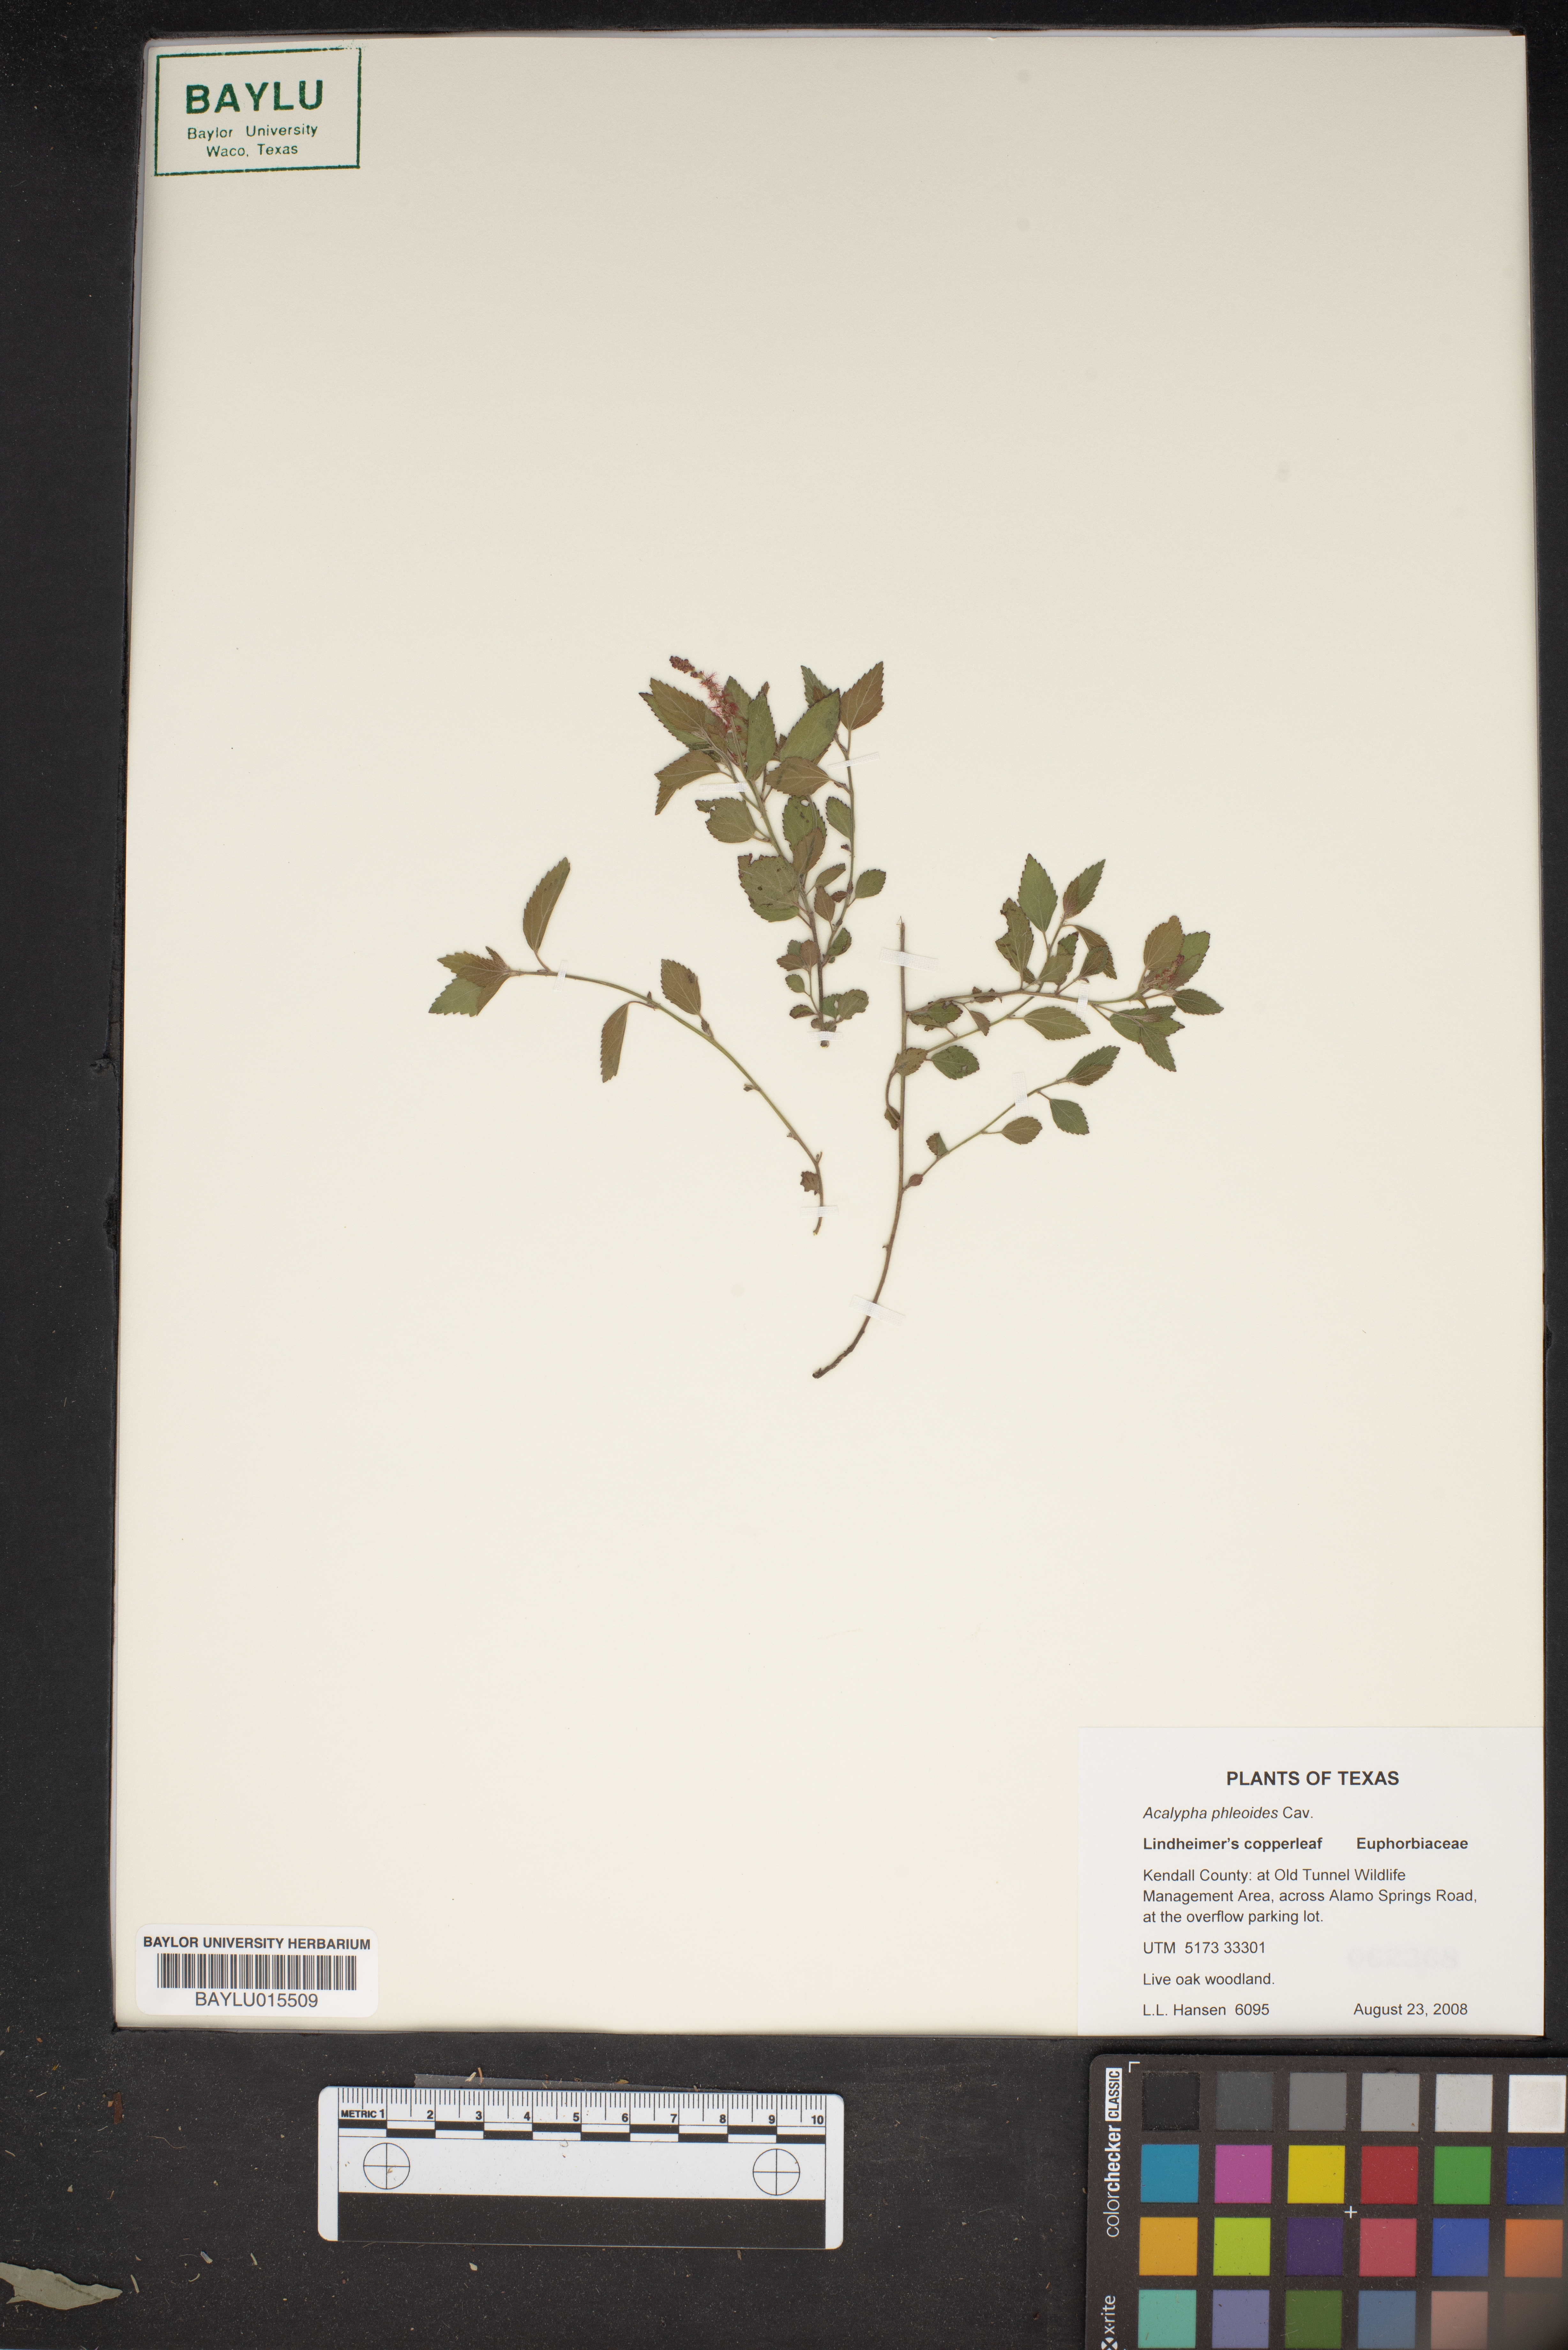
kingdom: Plantae
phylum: Tracheophyta
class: Magnoliopsida
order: Malpighiales
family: Euphorbiaceae
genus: Acalypha
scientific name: Acalypha phleoides
